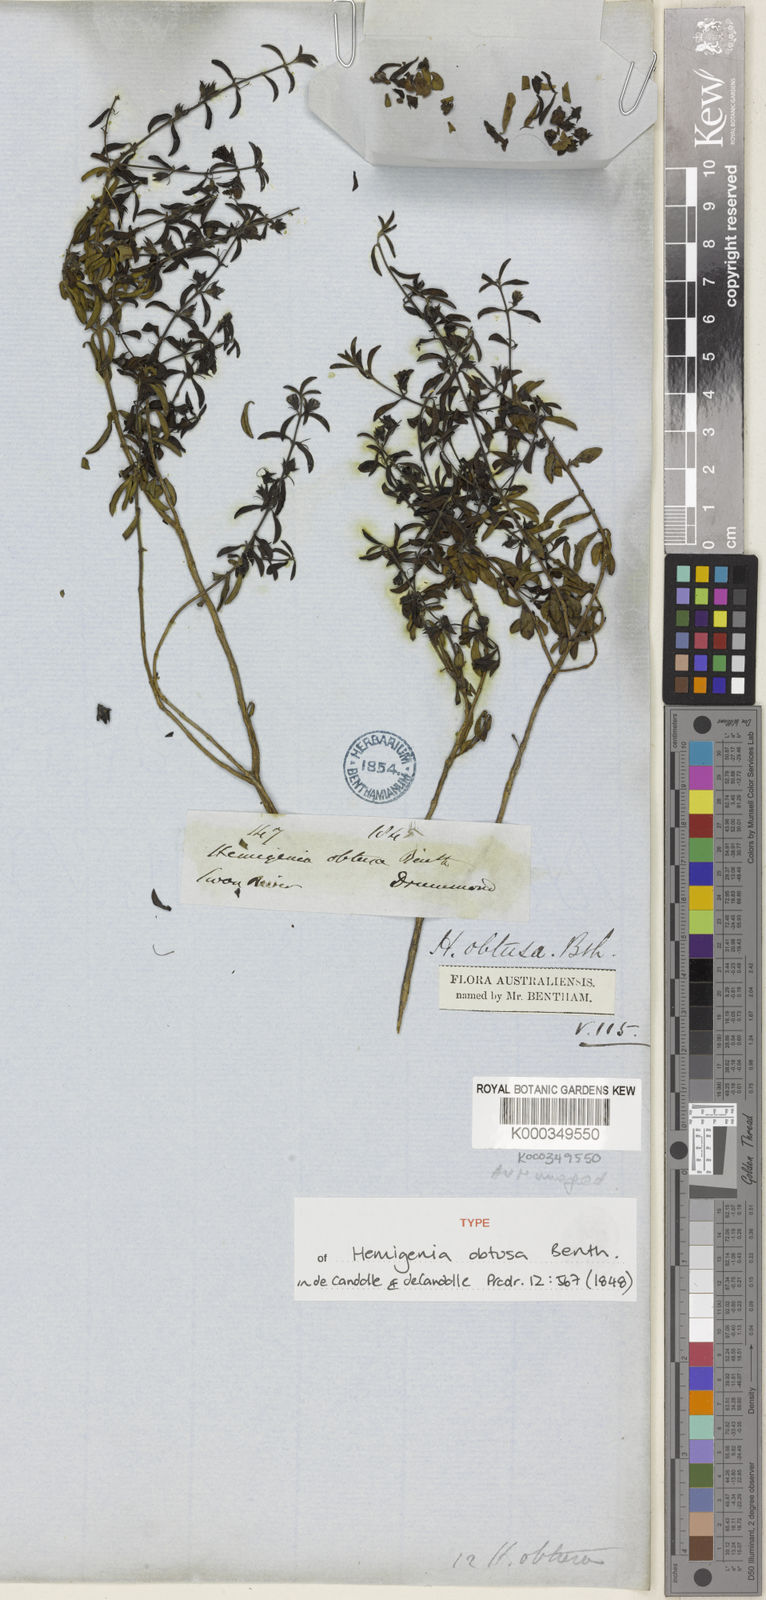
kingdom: Plantae
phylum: Tracheophyta
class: Magnoliopsida
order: Lamiales
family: Lamiaceae
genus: Hemigenia
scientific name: Hemigenia obtusa
